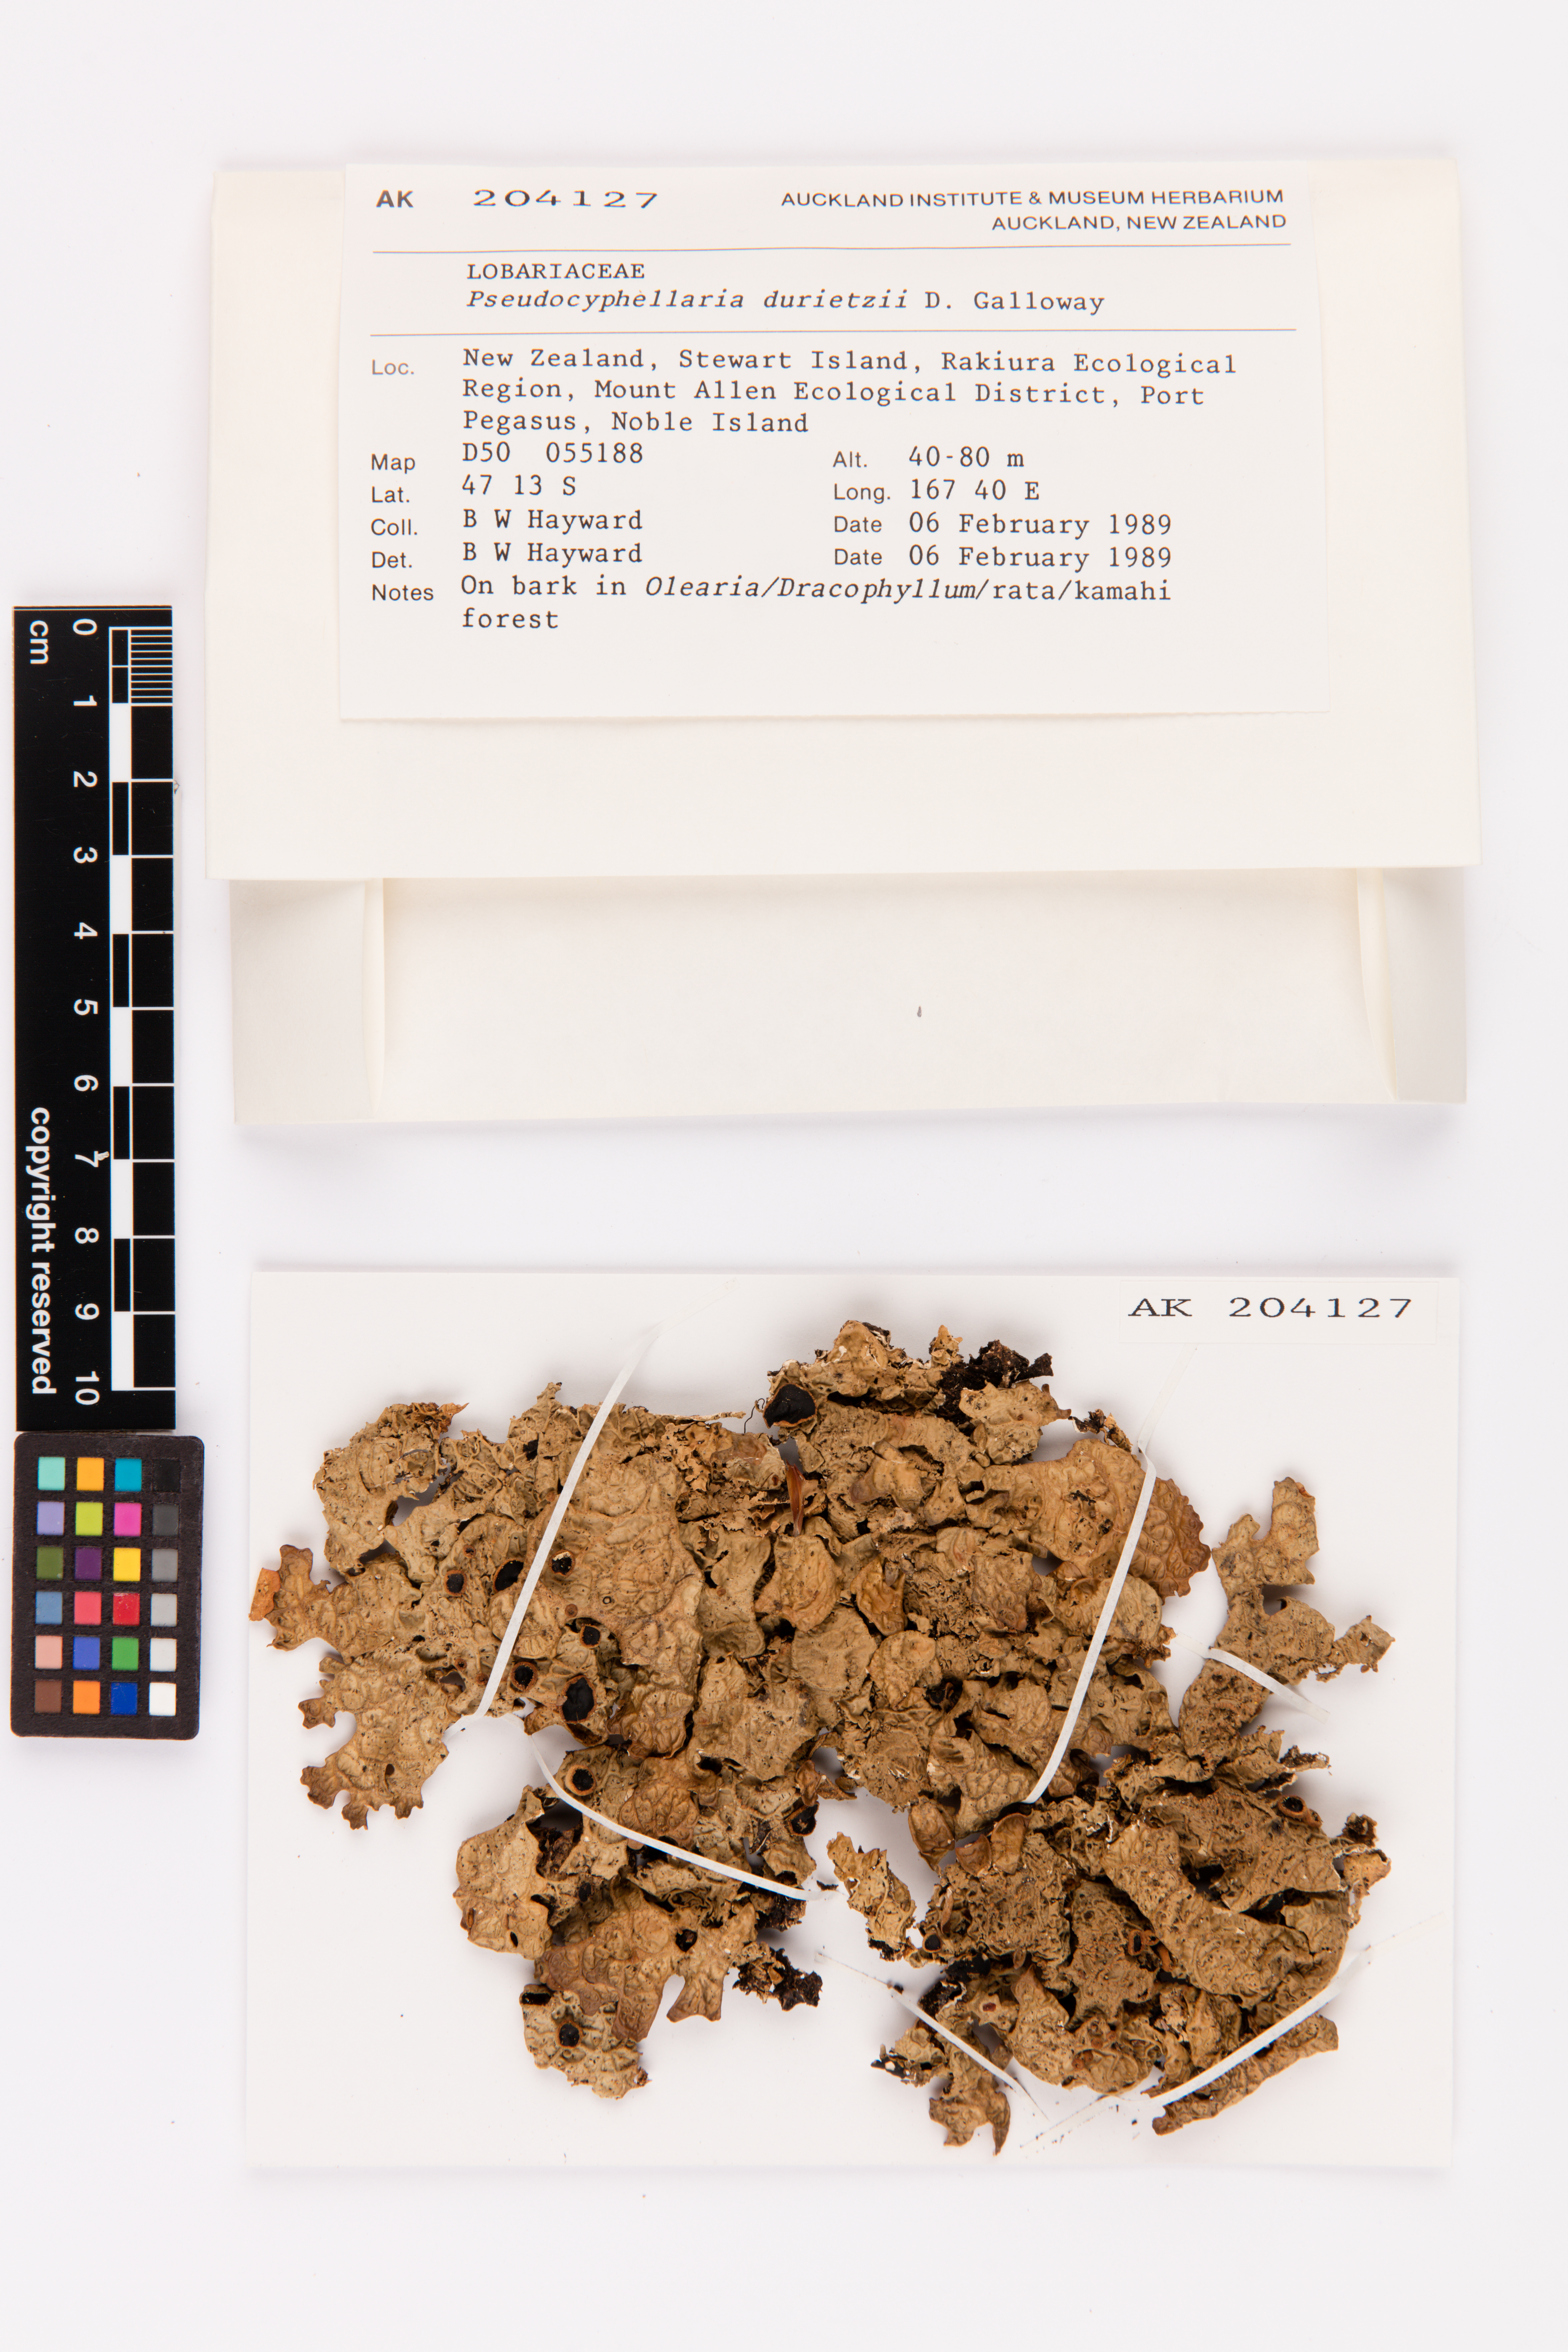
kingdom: Fungi
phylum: Ascomycota
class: Lecanoromycetes
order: Peltigerales
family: Lobariaceae
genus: Pseudocyphellaria
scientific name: Pseudocyphellaria durietzii
